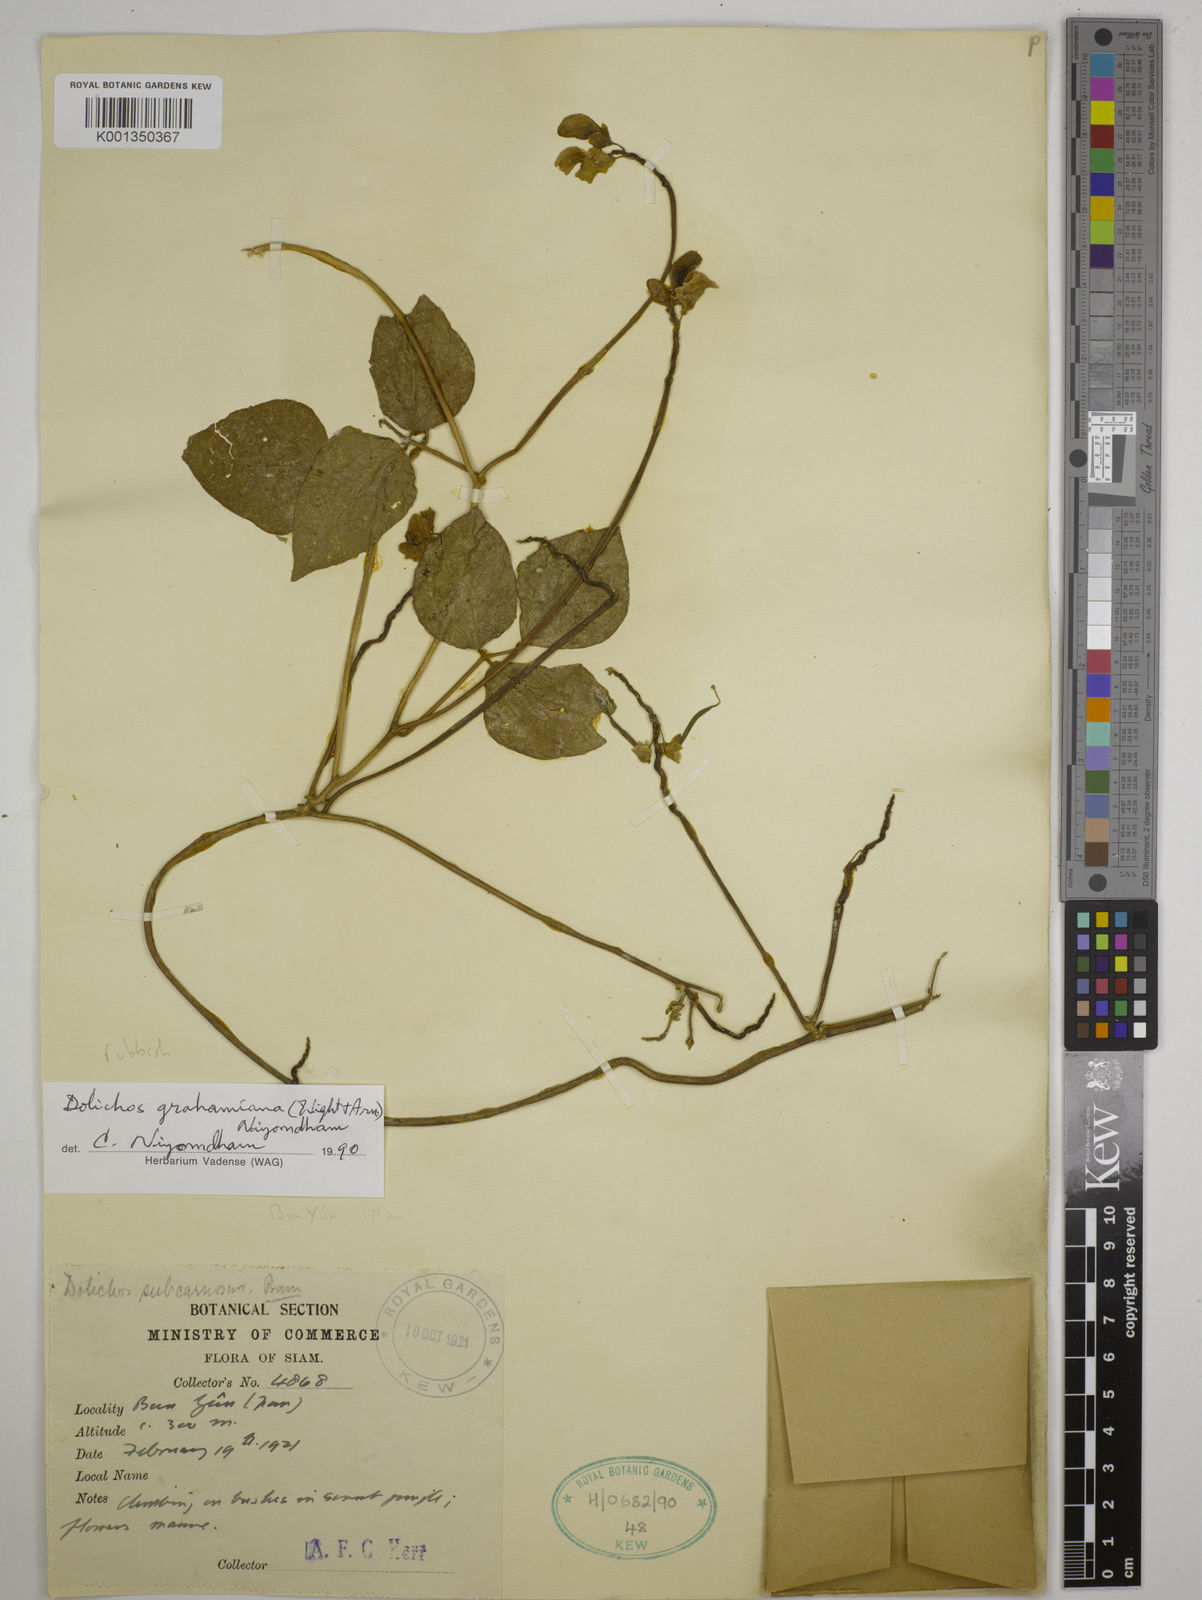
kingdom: Plantae
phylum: Tracheophyta
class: Magnoliopsida
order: Fabales
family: Fabaceae
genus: Wajira
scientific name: Wajira grahamiana
